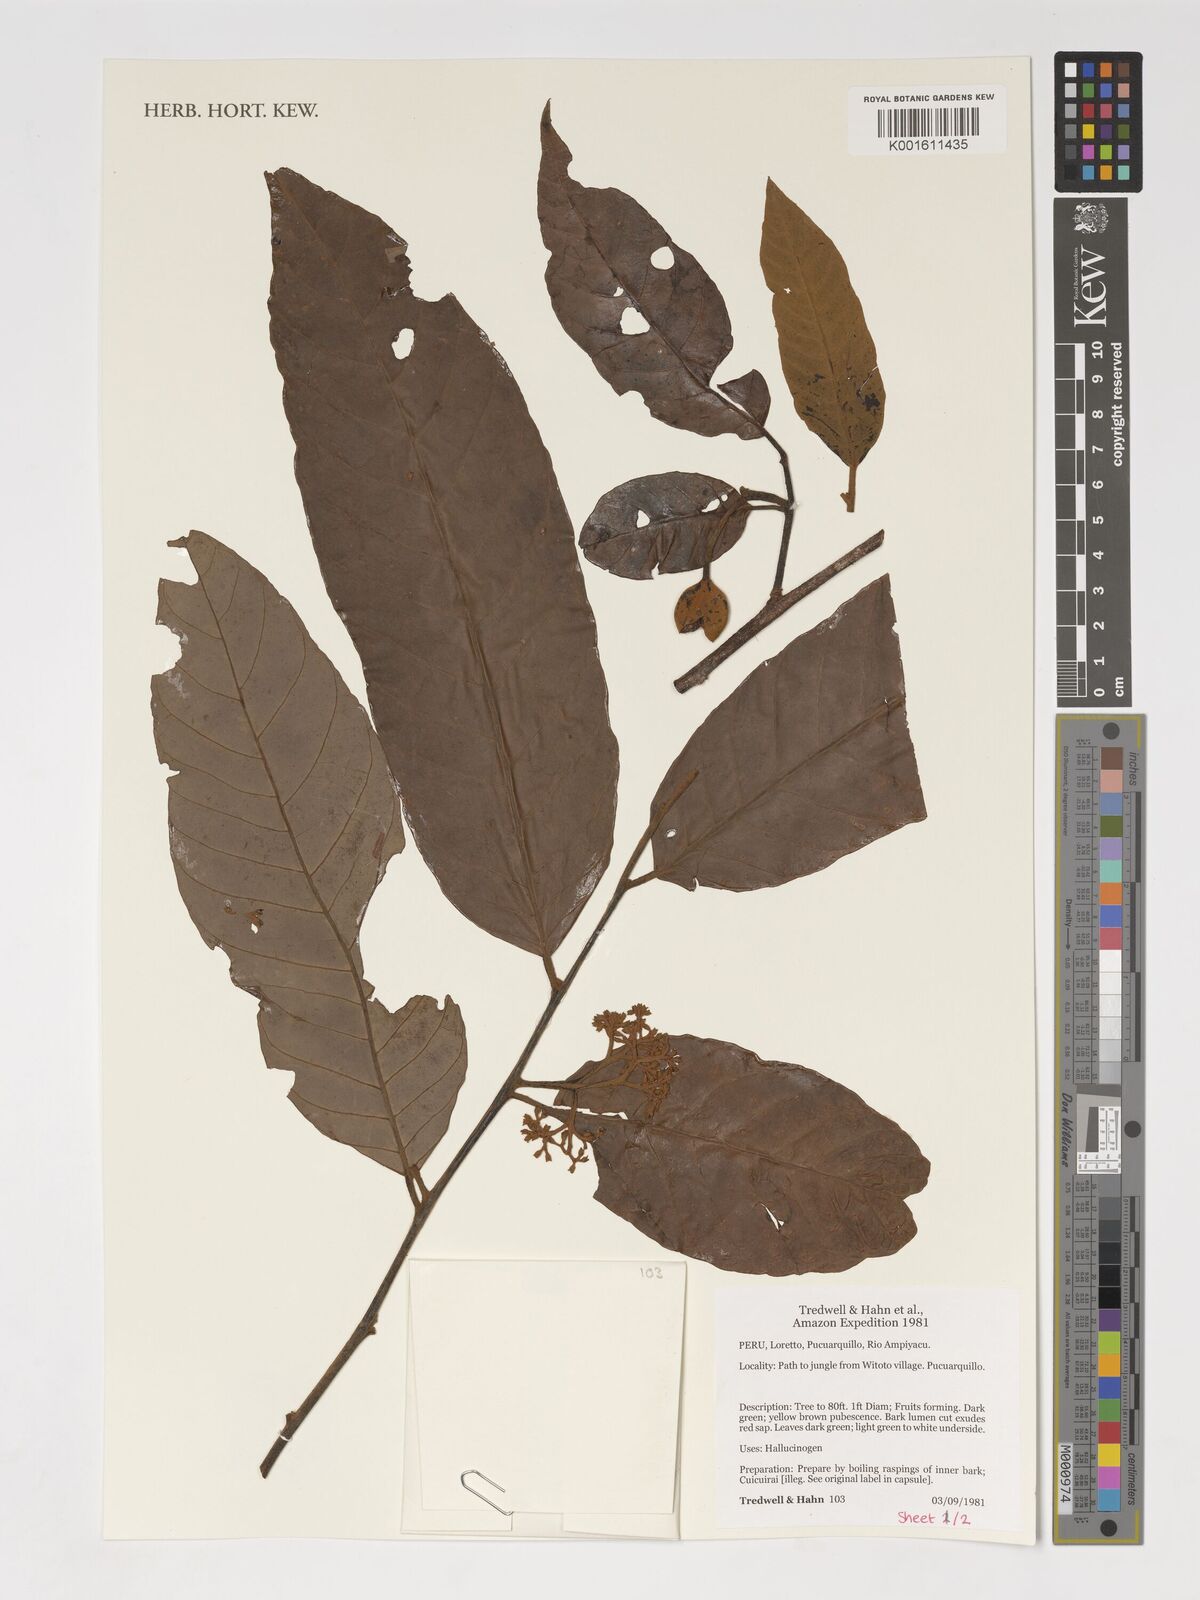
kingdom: Plantae
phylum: Tracheophyta
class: Magnoliopsida
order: Magnoliales
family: Myristicaceae
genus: Virola
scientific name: Virola
